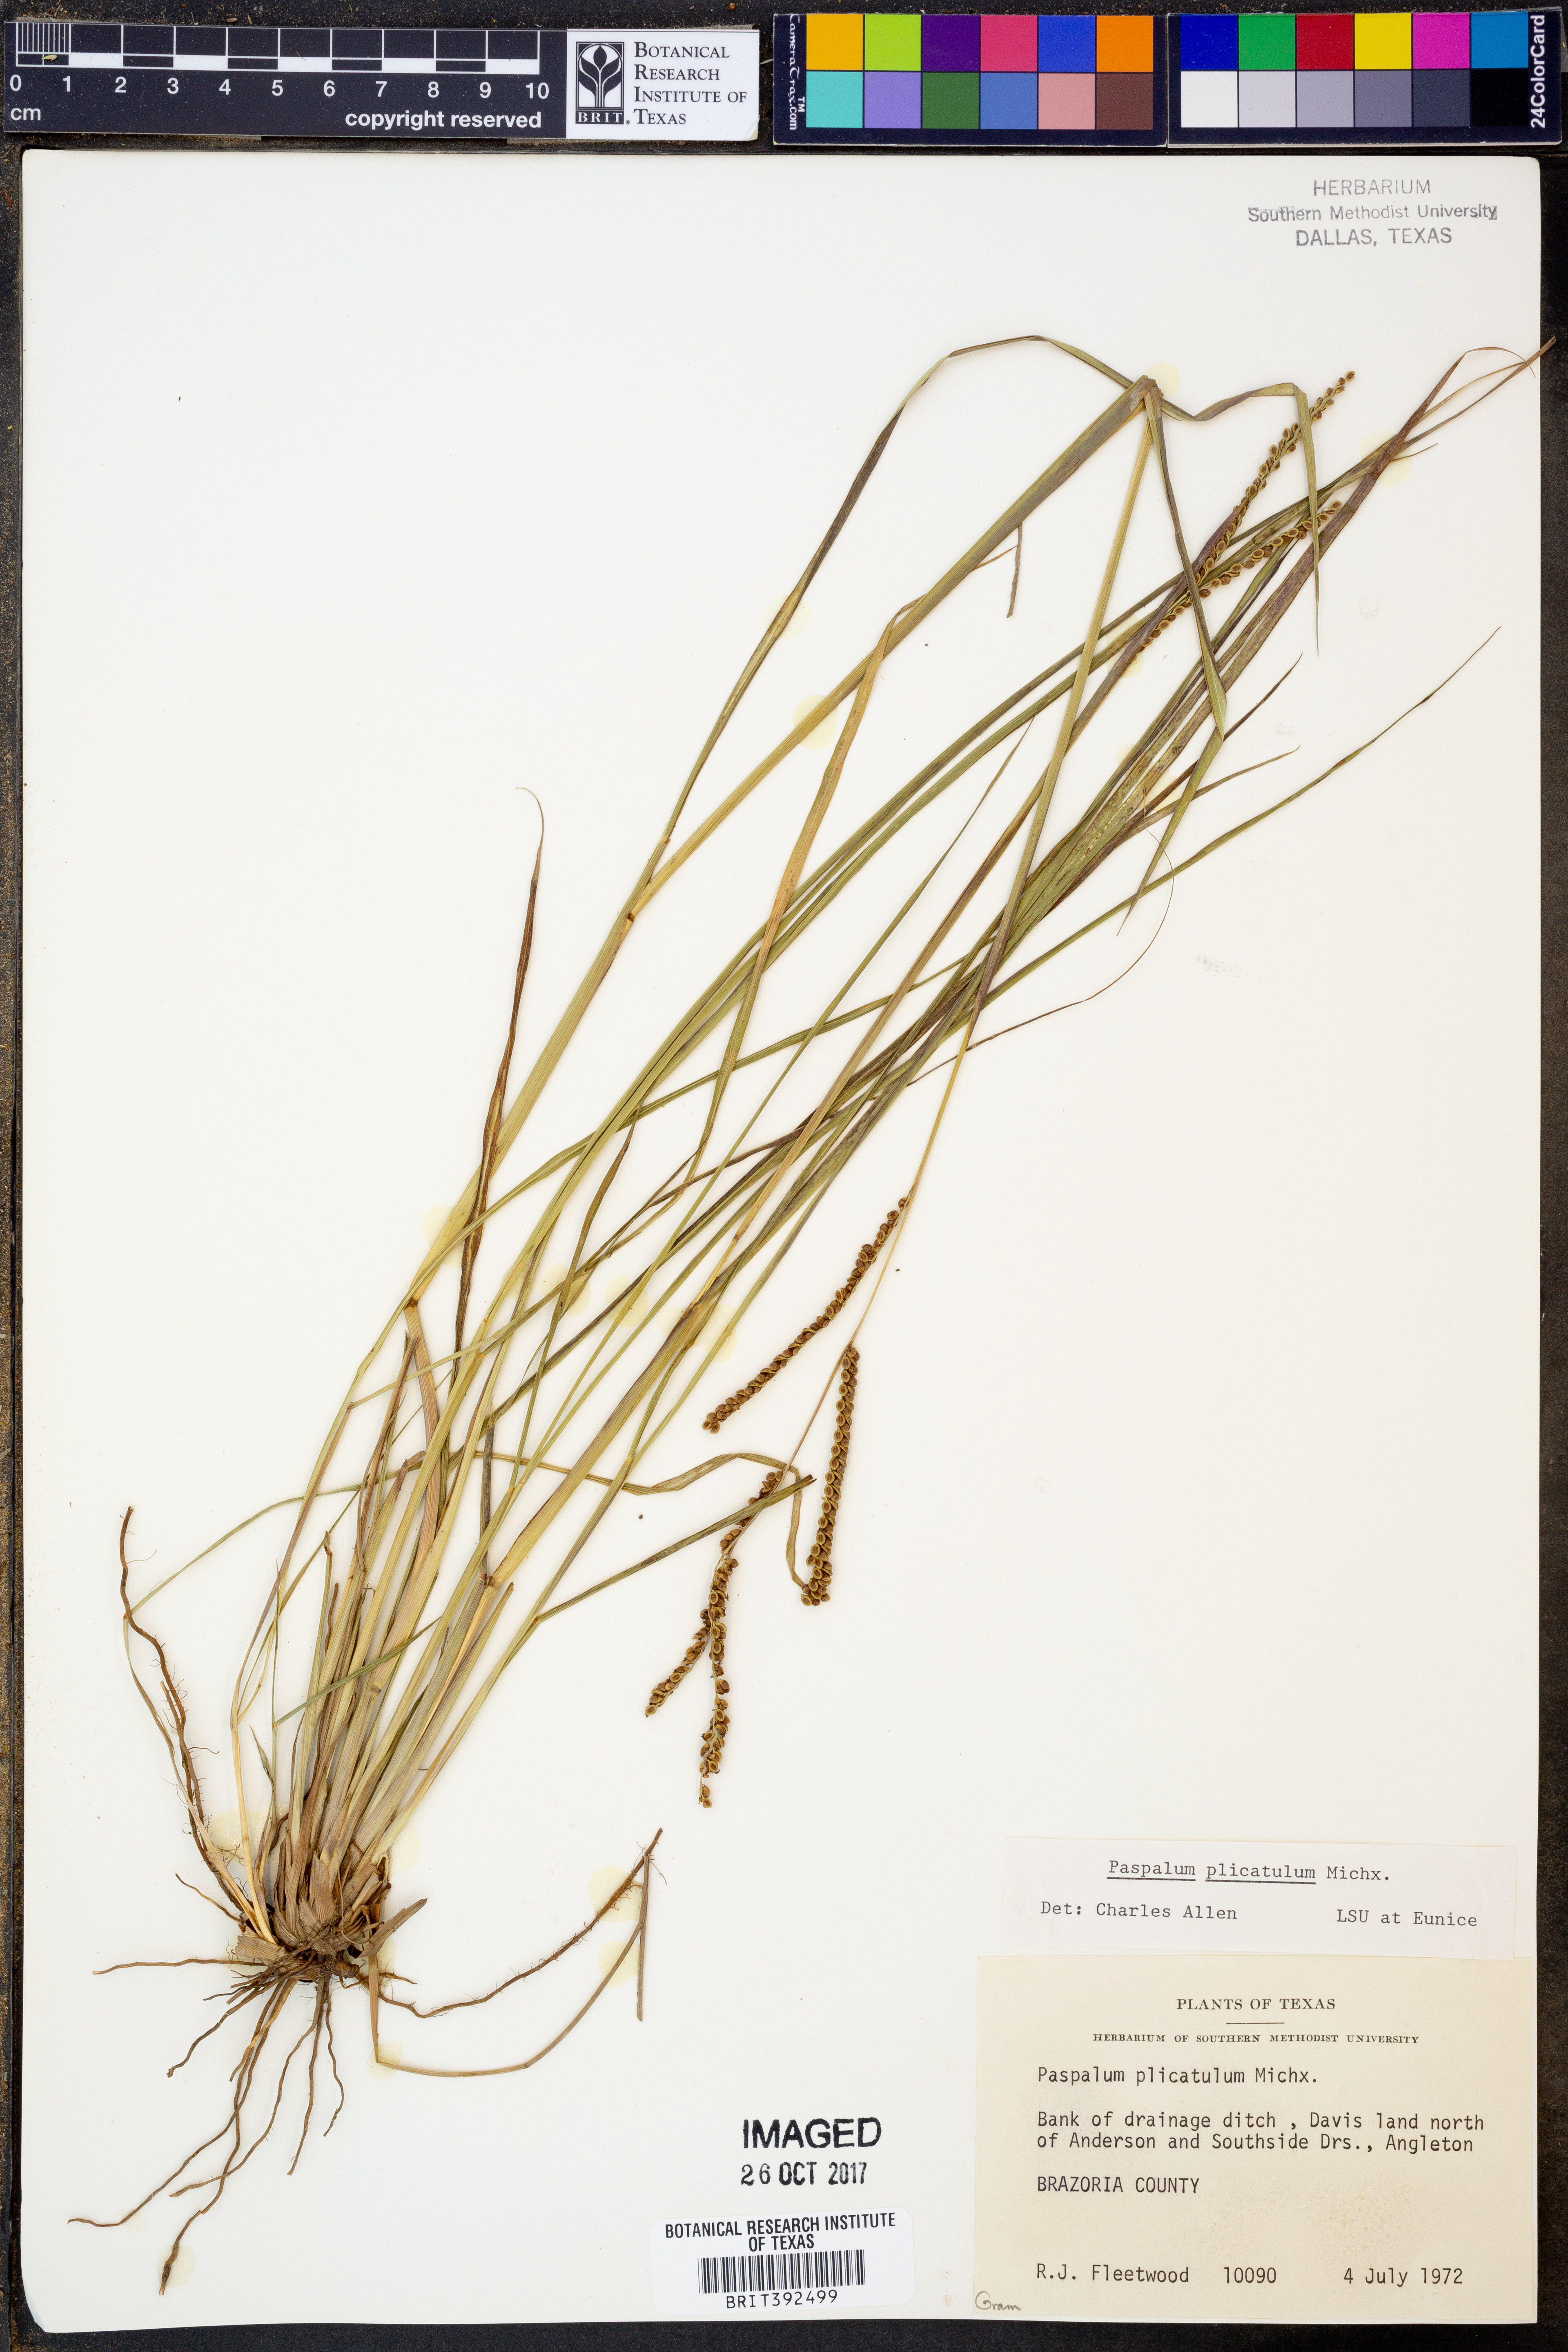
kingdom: Plantae
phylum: Tracheophyta
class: Liliopsida
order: Poales
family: Poaceae
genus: Paspalum
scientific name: Paspalum plicatulum
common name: Top paspalum
